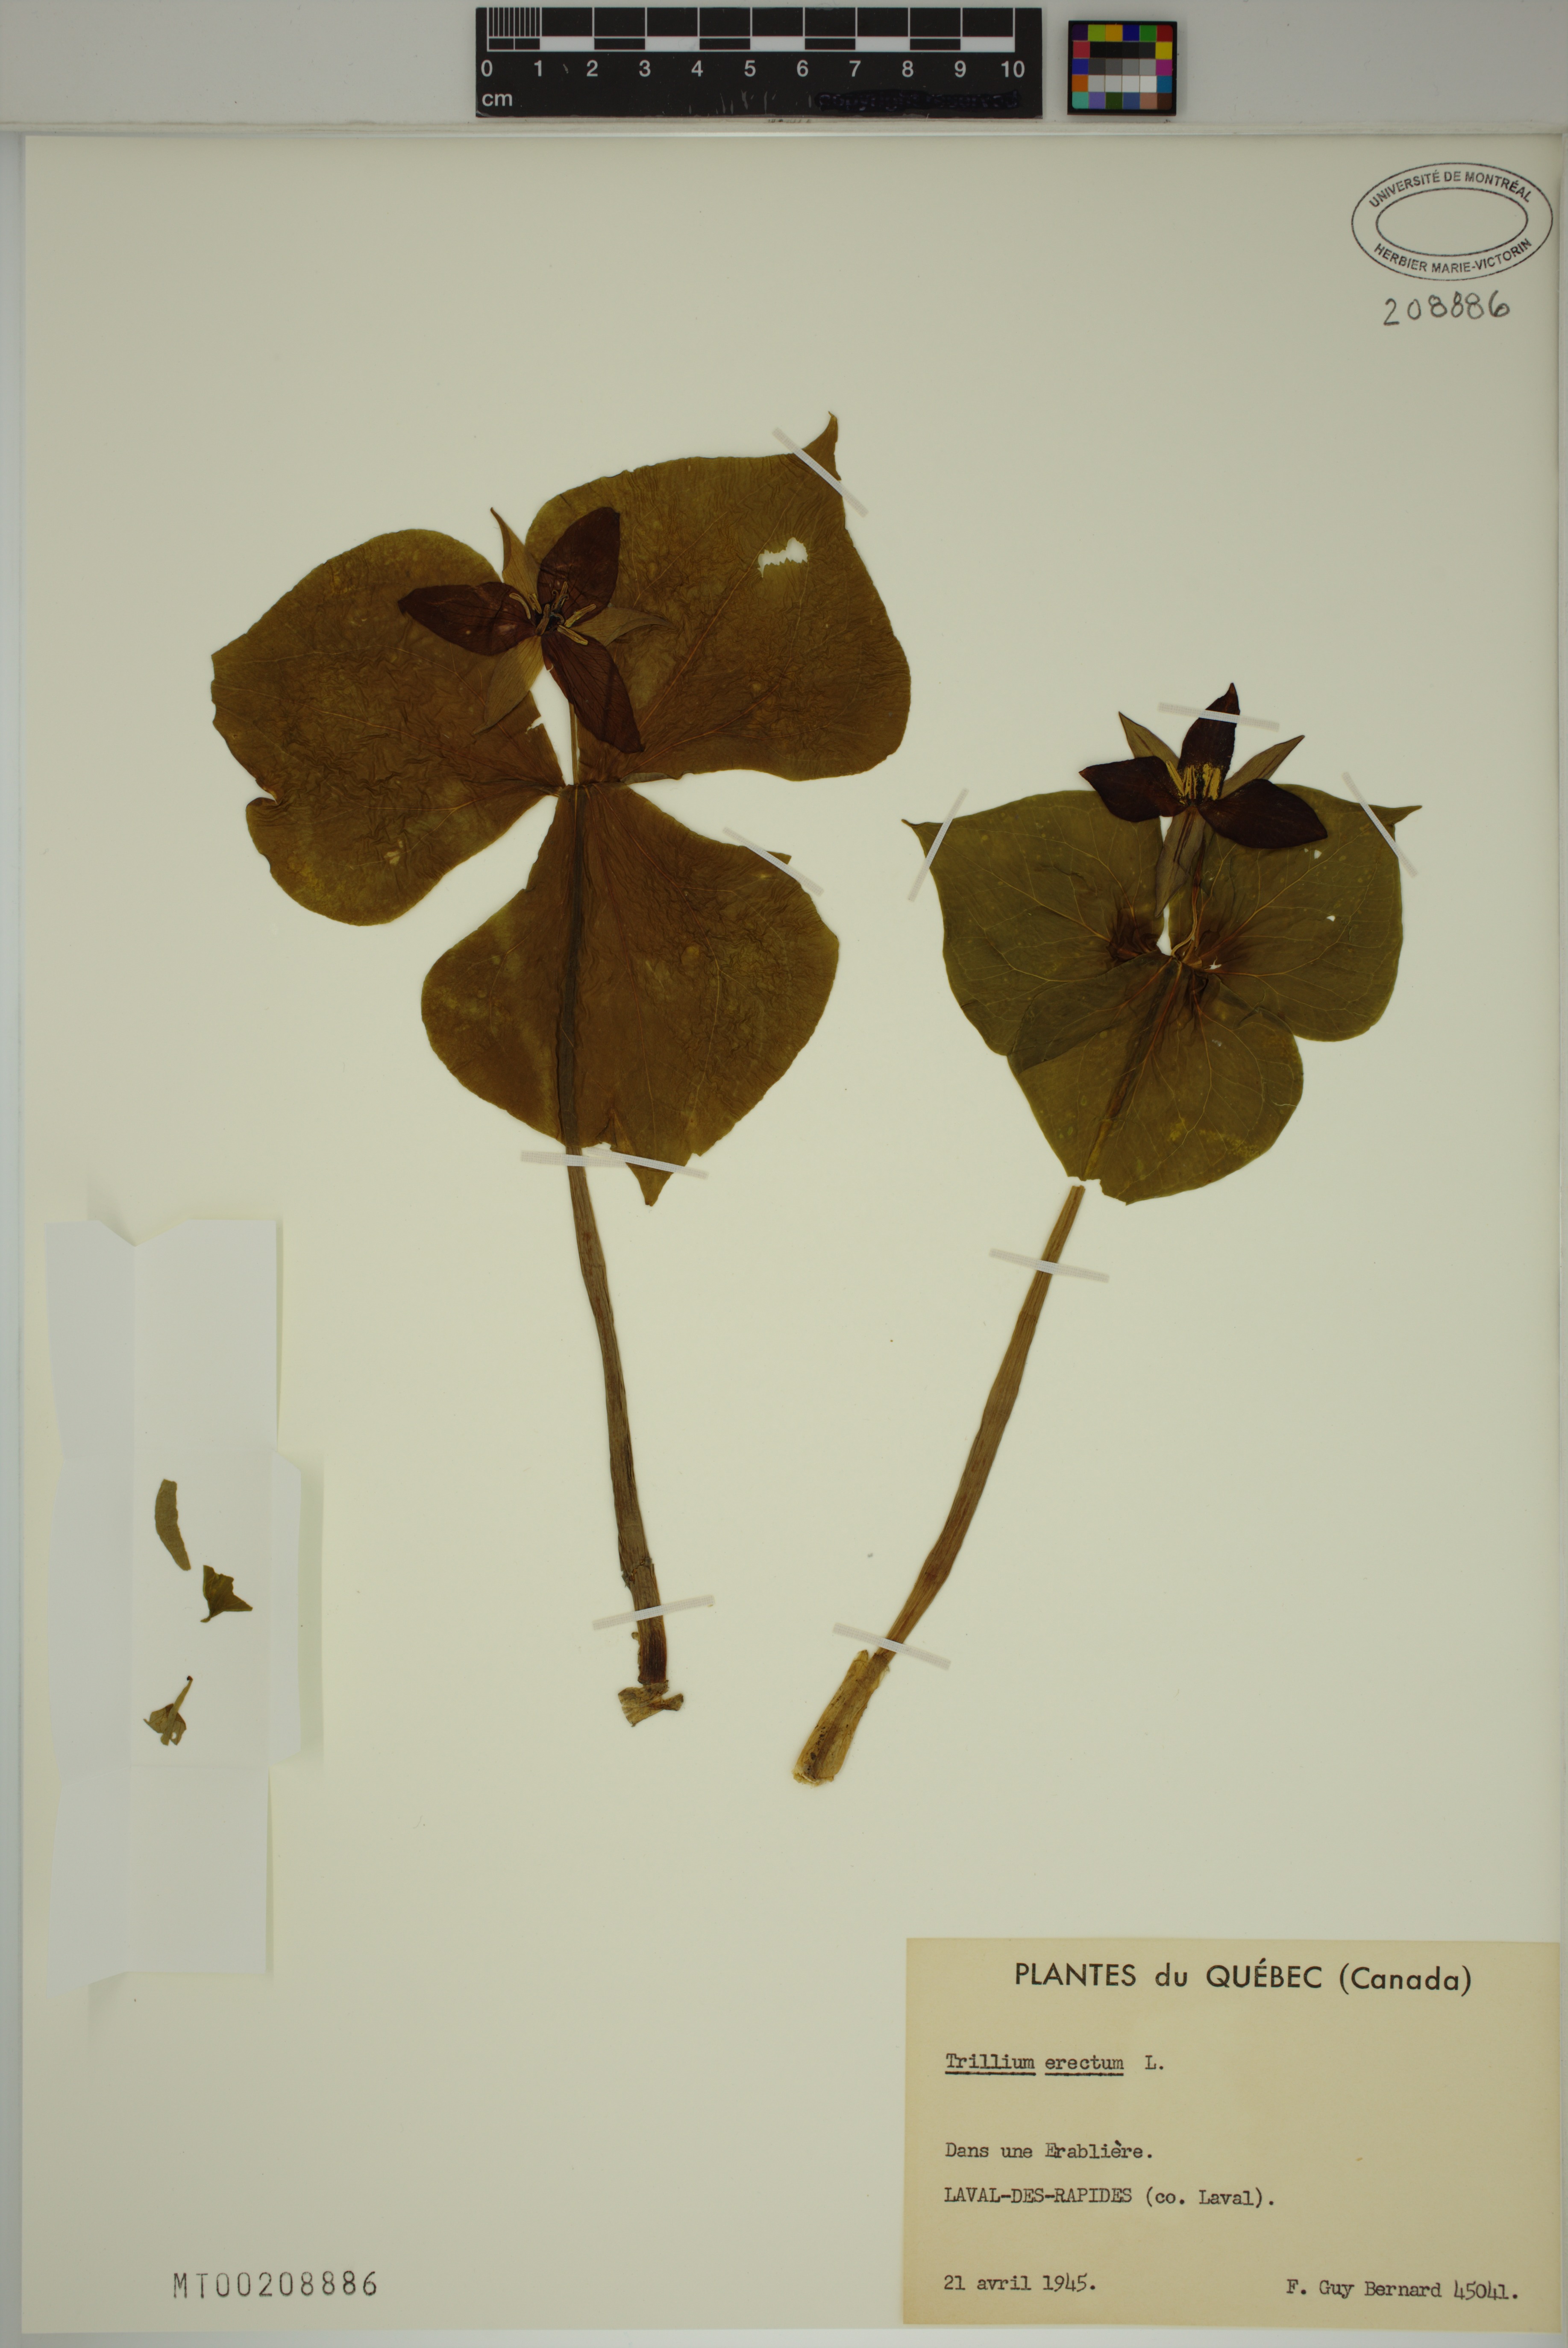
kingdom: Plantae
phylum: Tracheophyta
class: Liliopsida
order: Liliales
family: Melanthiaceae
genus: Trillium
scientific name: Trillium erectum
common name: Purple trillium
